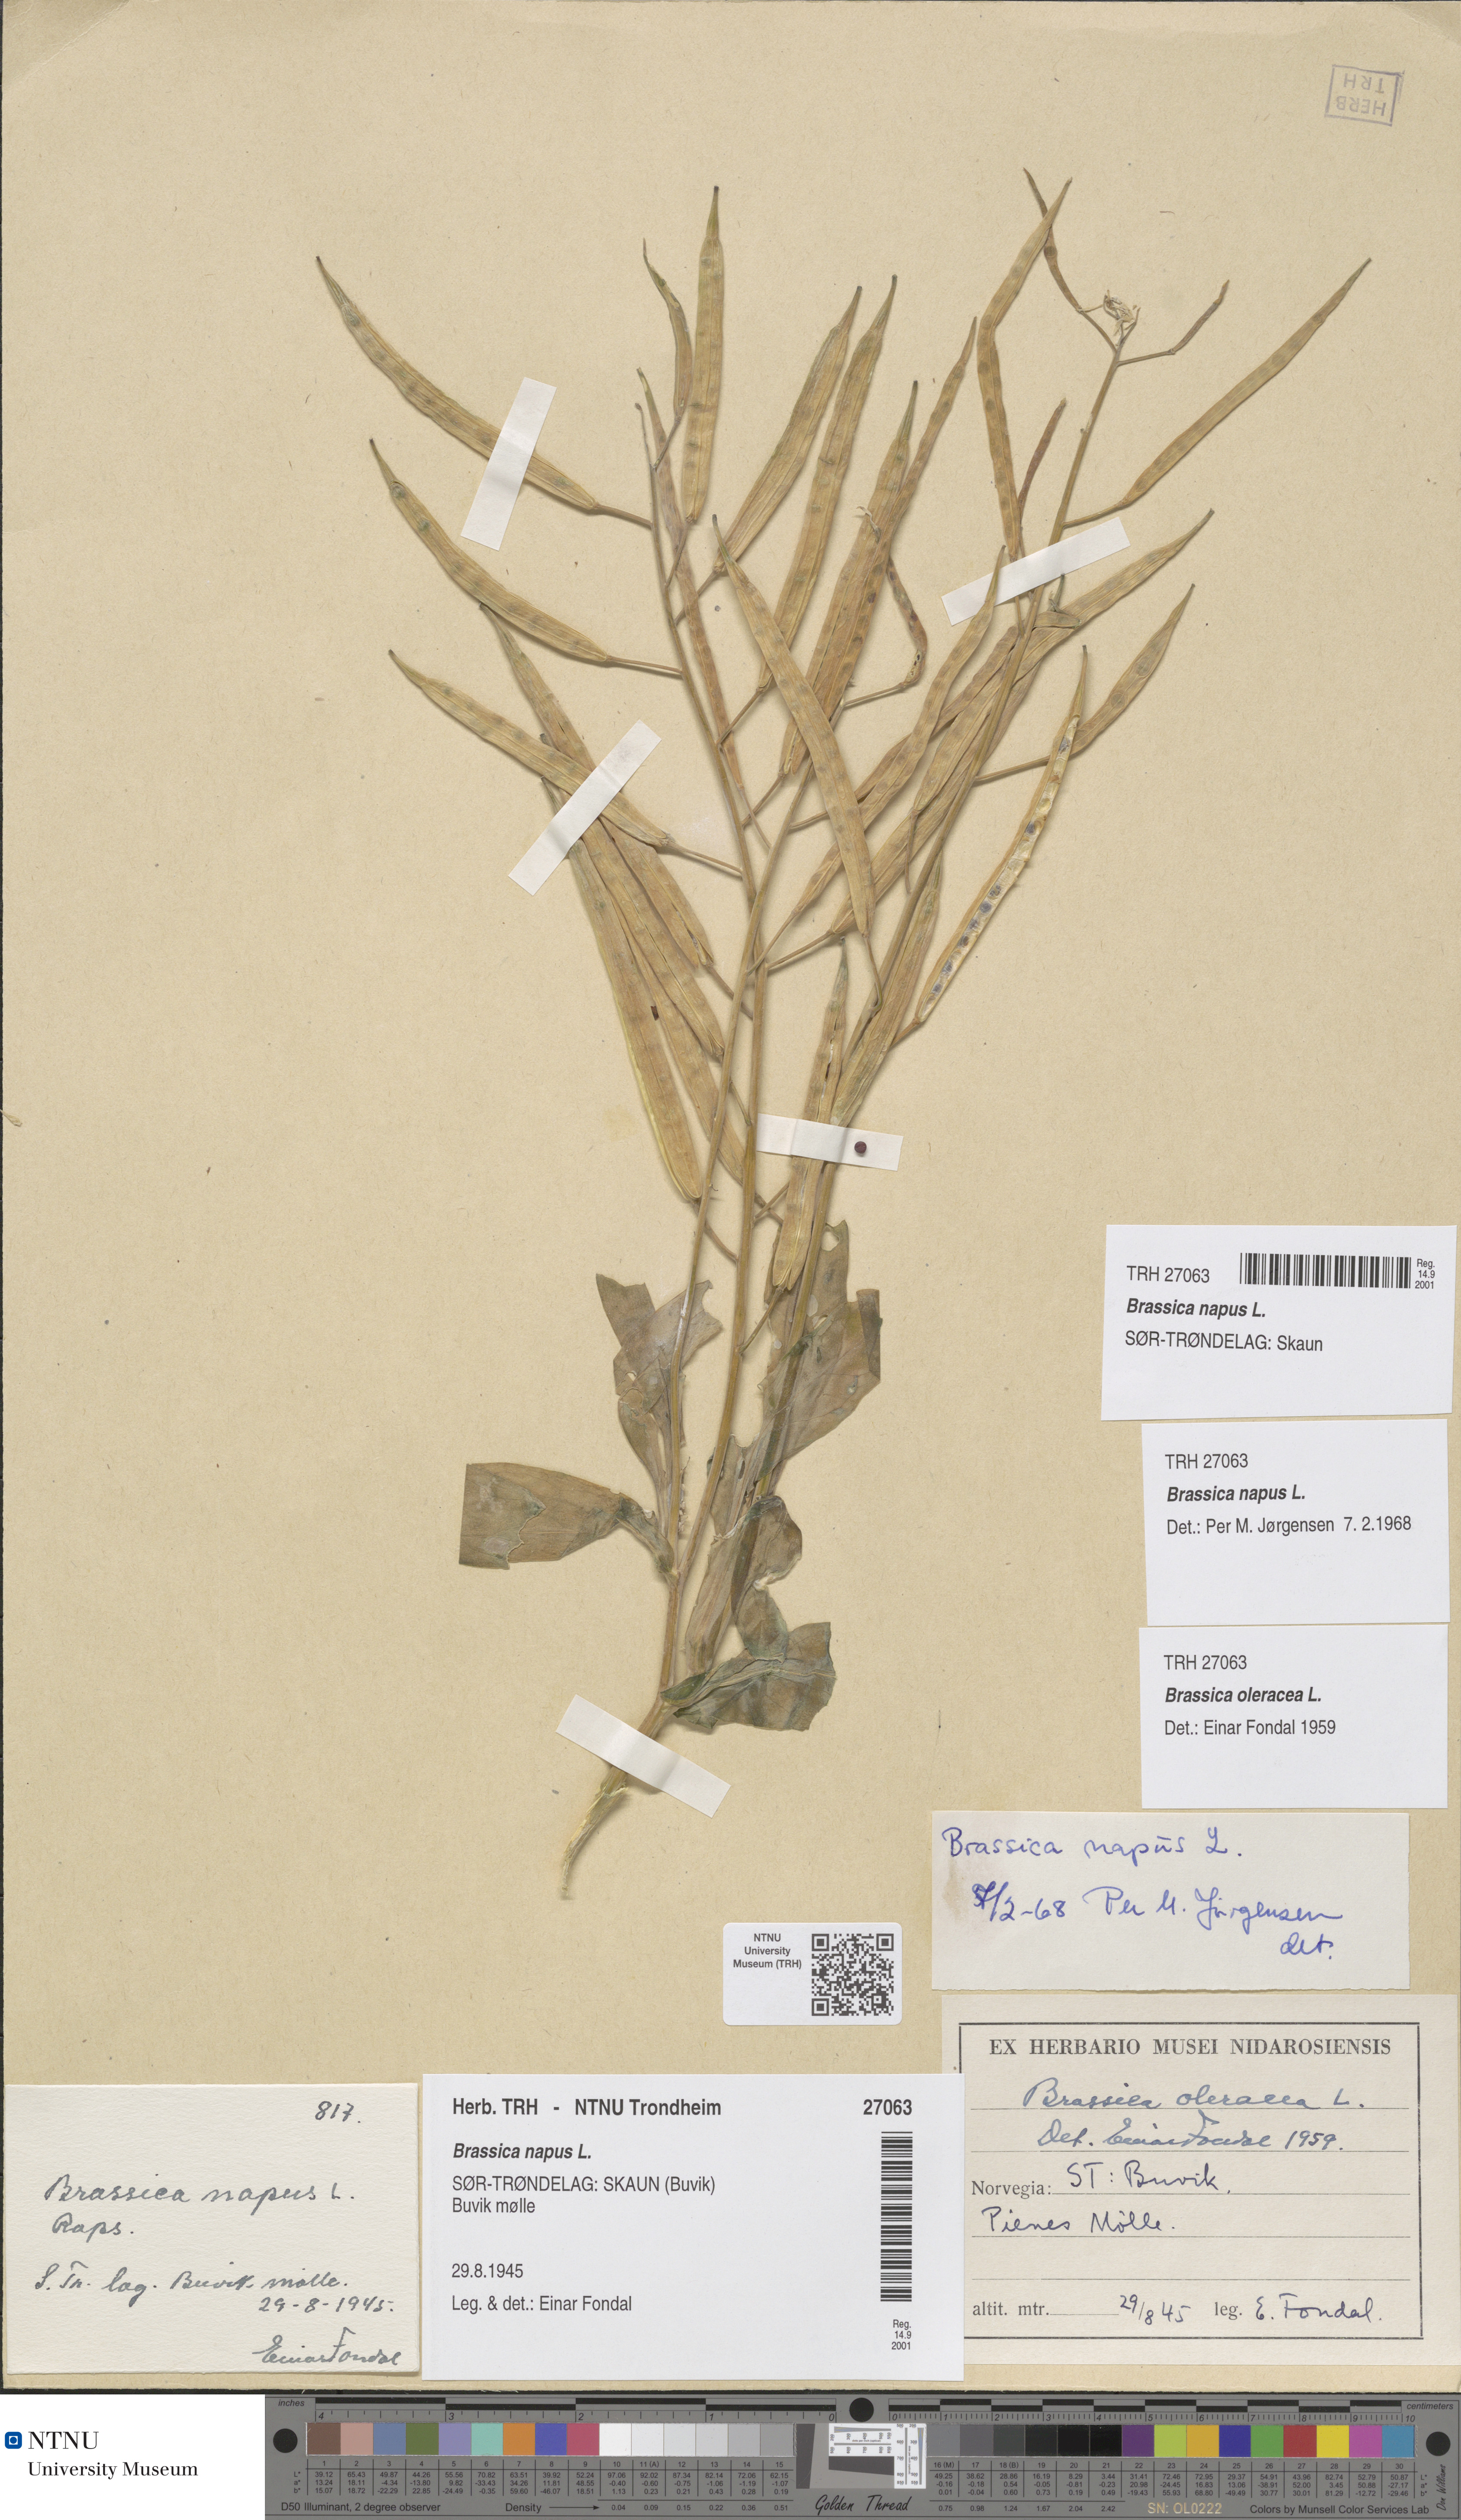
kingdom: Plantae
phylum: Tracheophyta
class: Magnoliopsida
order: Brassicales
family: Brassicaceae
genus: Brassica
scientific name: Brassica napus
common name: Rape
